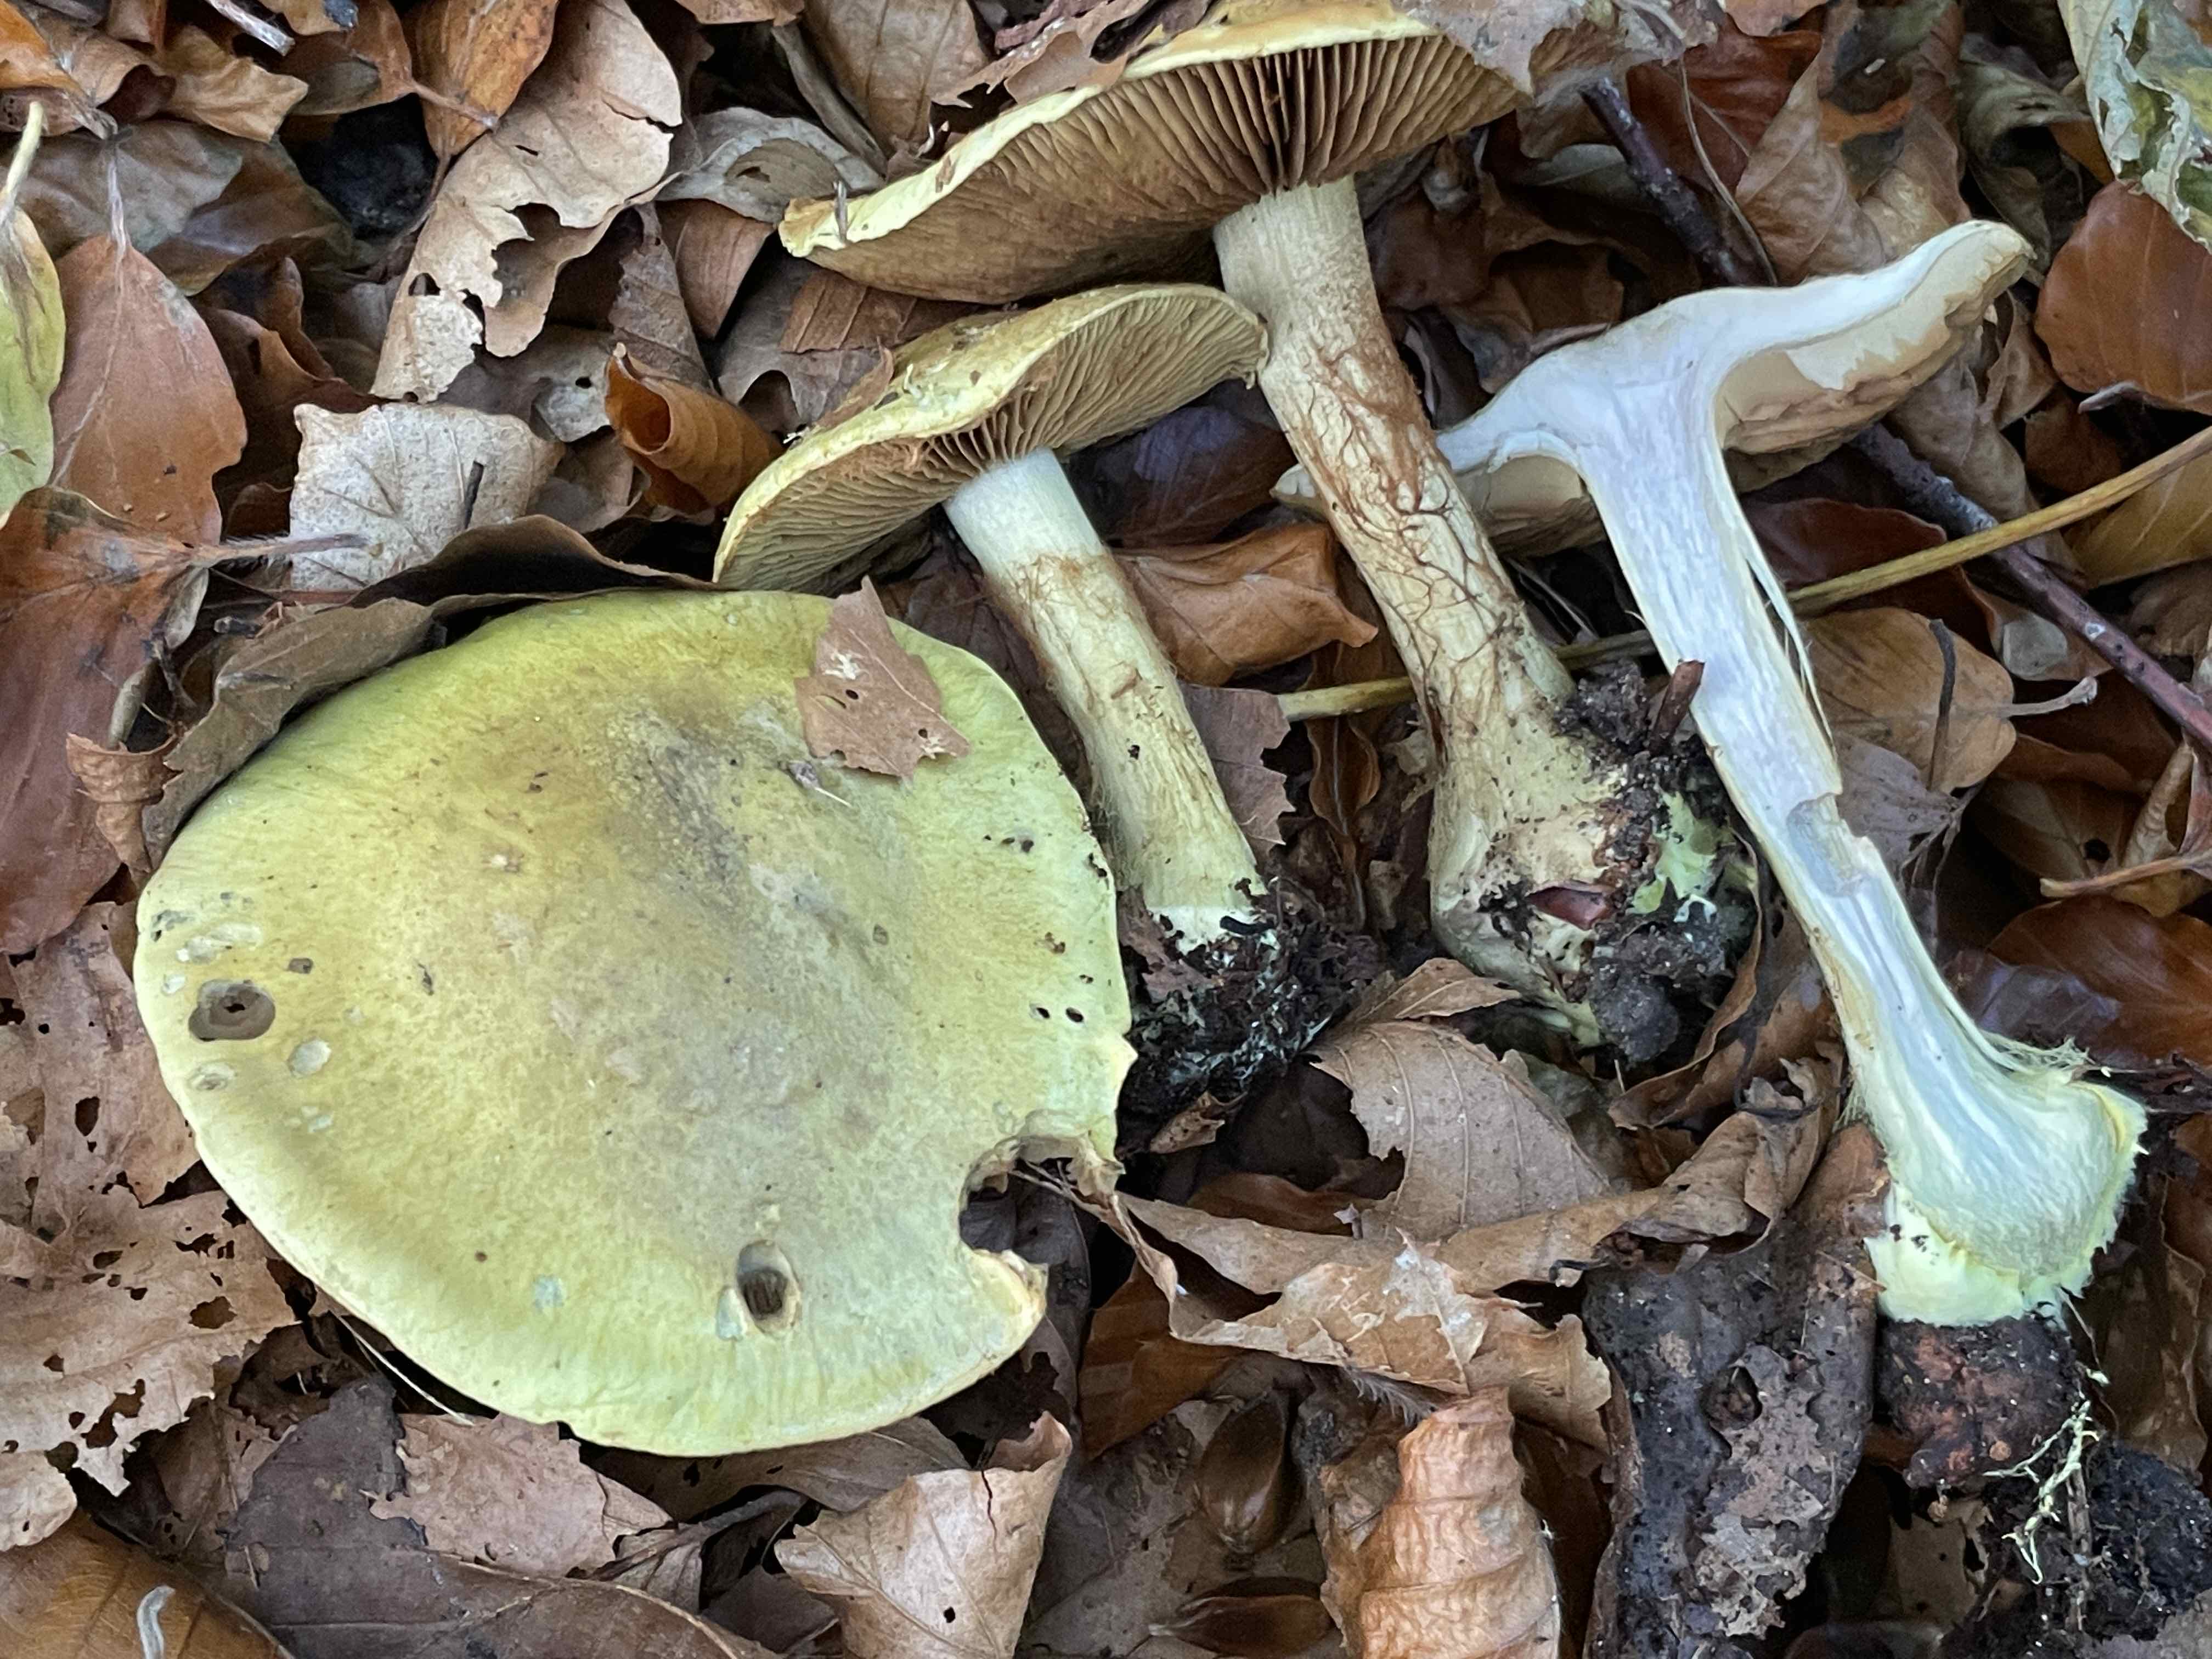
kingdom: Fungi
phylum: Basidiomycota
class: Agaricomycetes
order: Agaricales
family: Cortinariaceae
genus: Calonarius
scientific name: Calonarius odoratus
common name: krydret slørhat
